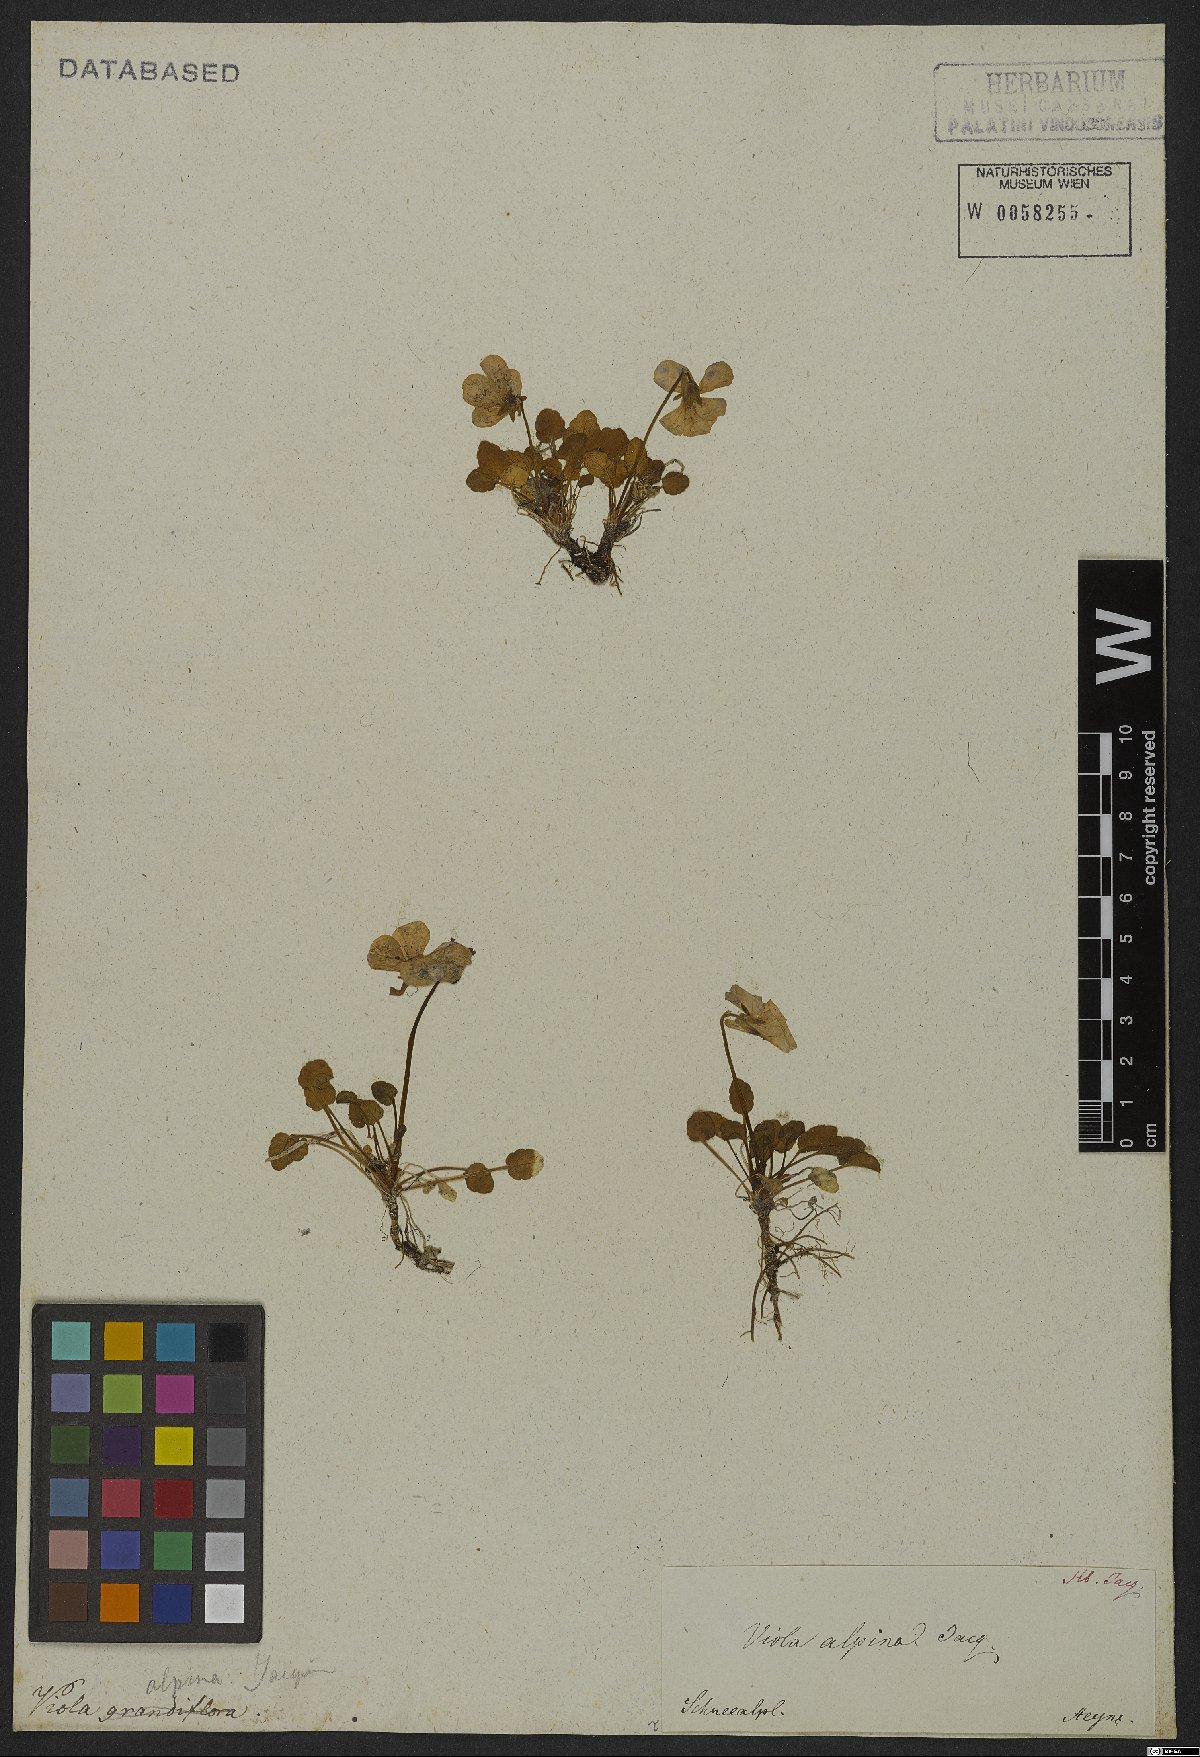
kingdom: Plantae
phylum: Tracheophyta
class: Magnoliopsida
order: Malpighiales
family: Violaceae
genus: Viola
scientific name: Viola alpina
